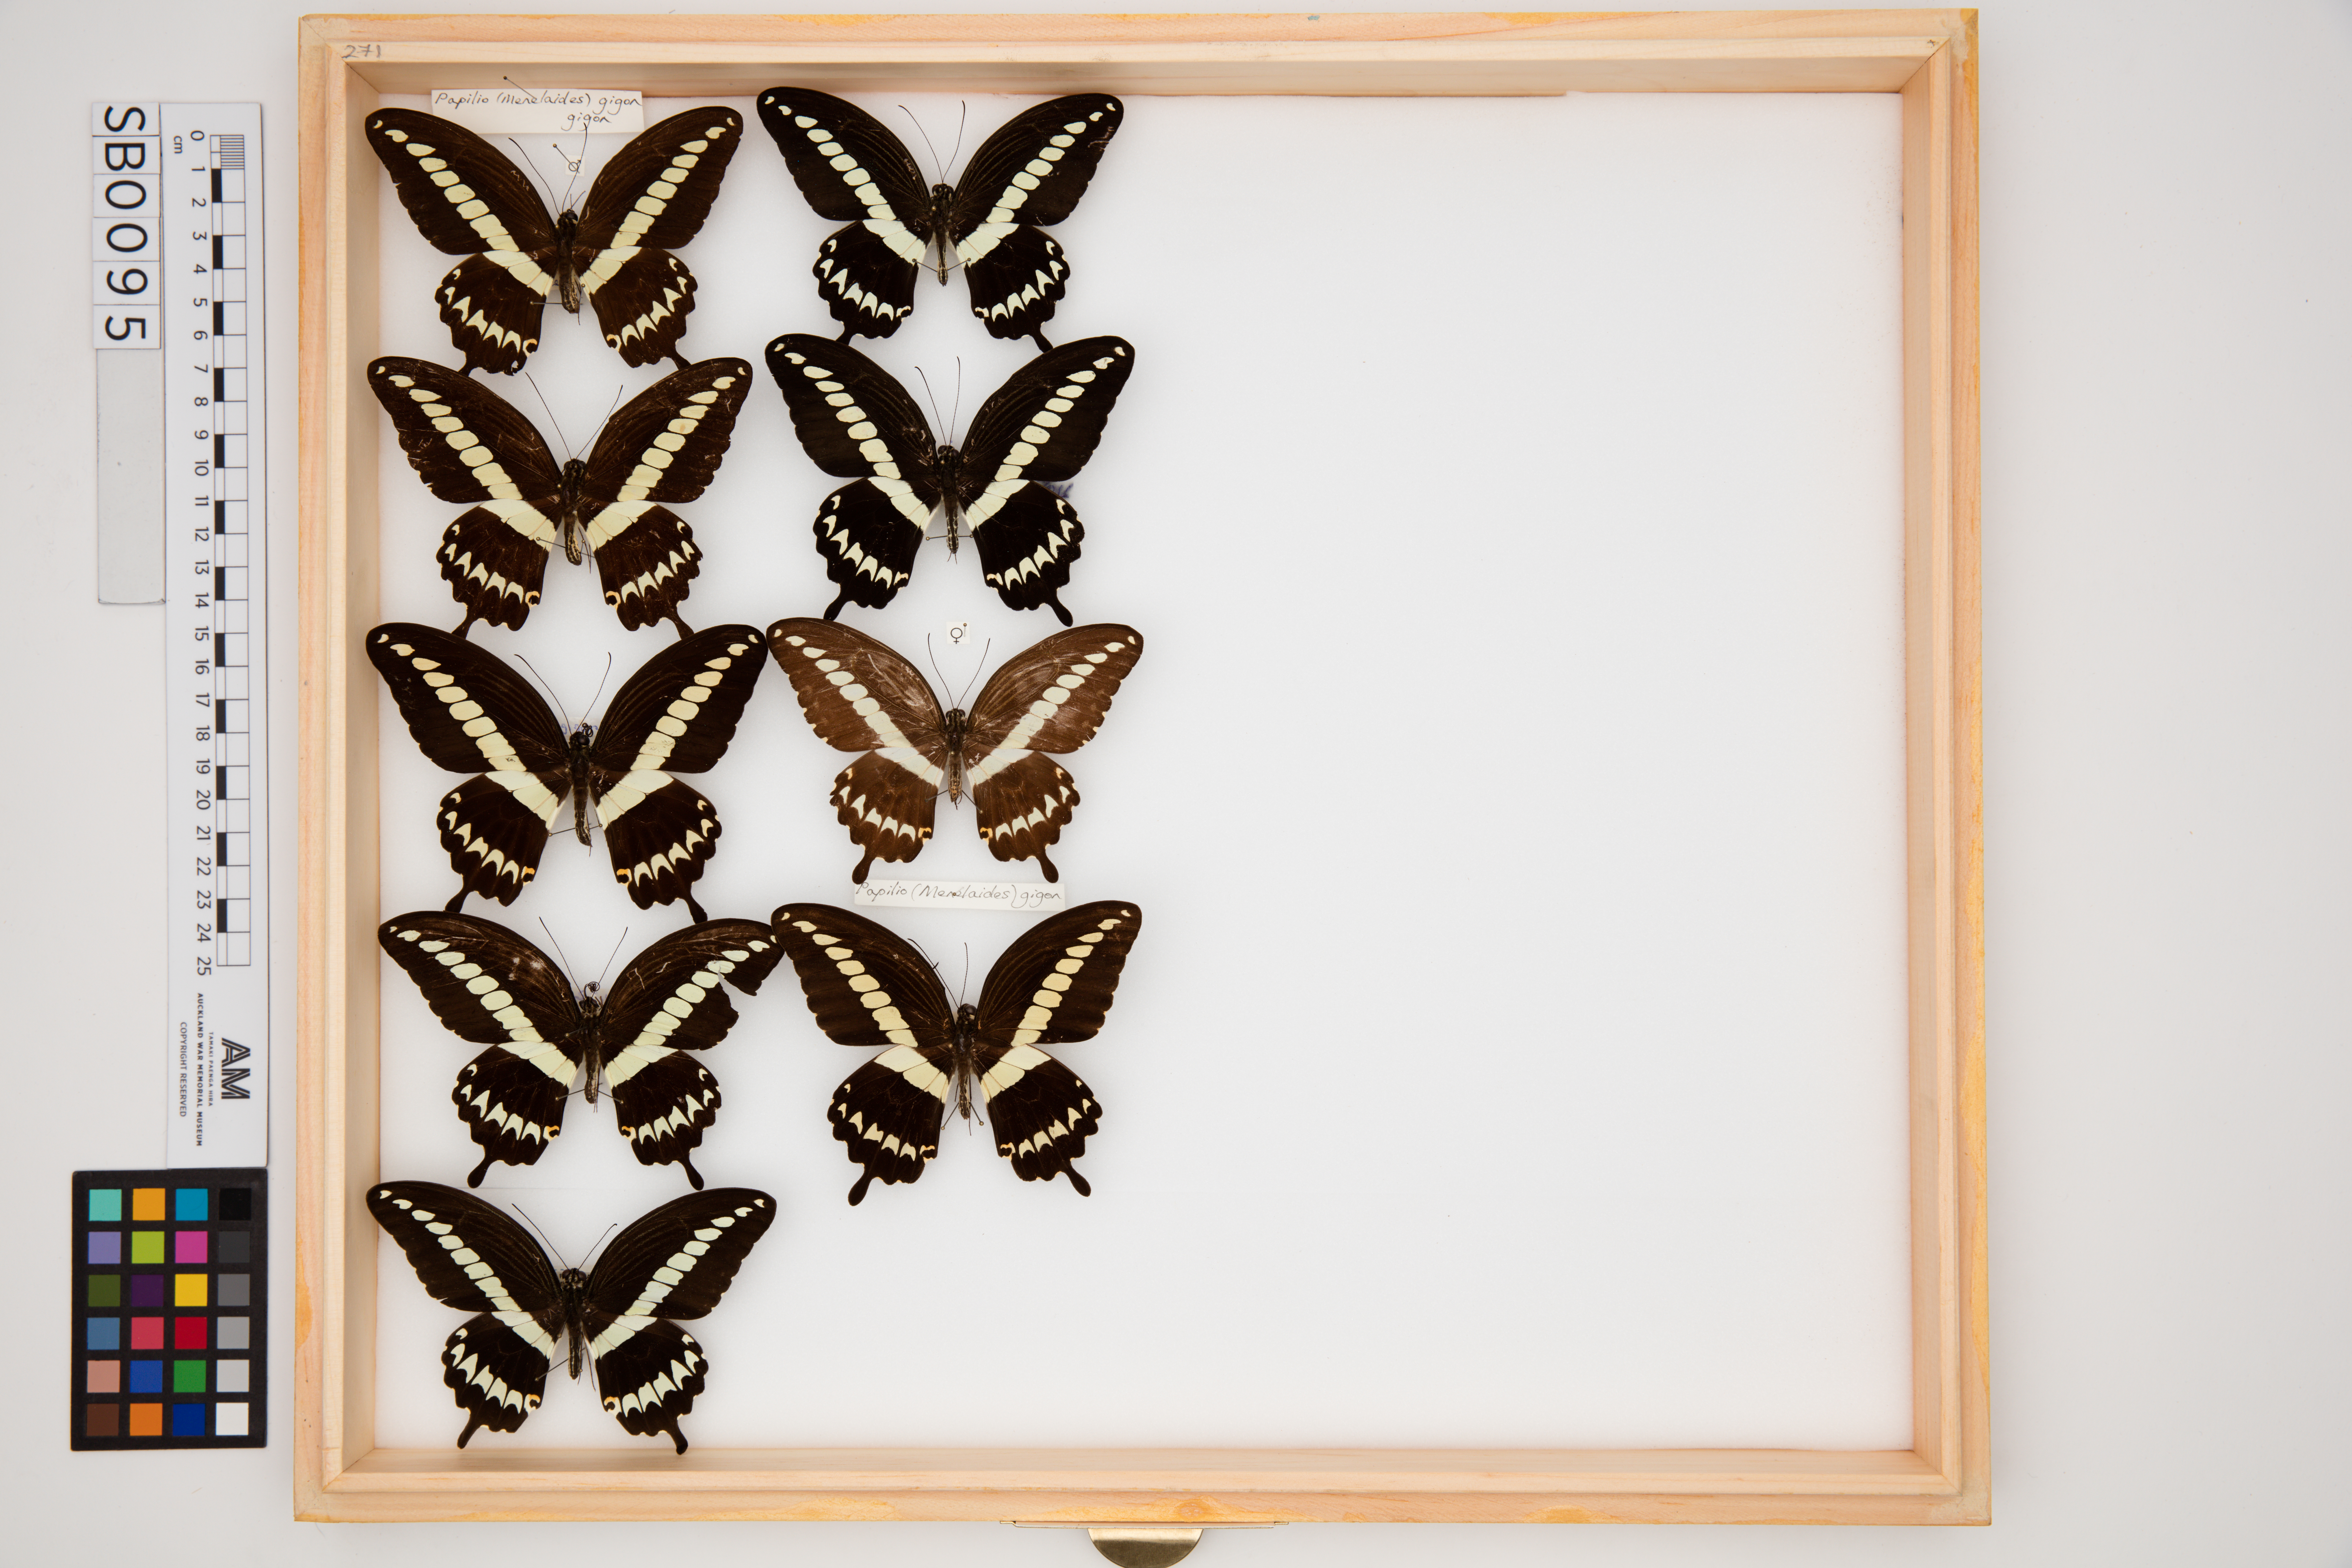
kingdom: Animalia
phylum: Arthropoda
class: Insecta
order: Lepidoptera
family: Papilionidae
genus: Papilio
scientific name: Papilio gigon
